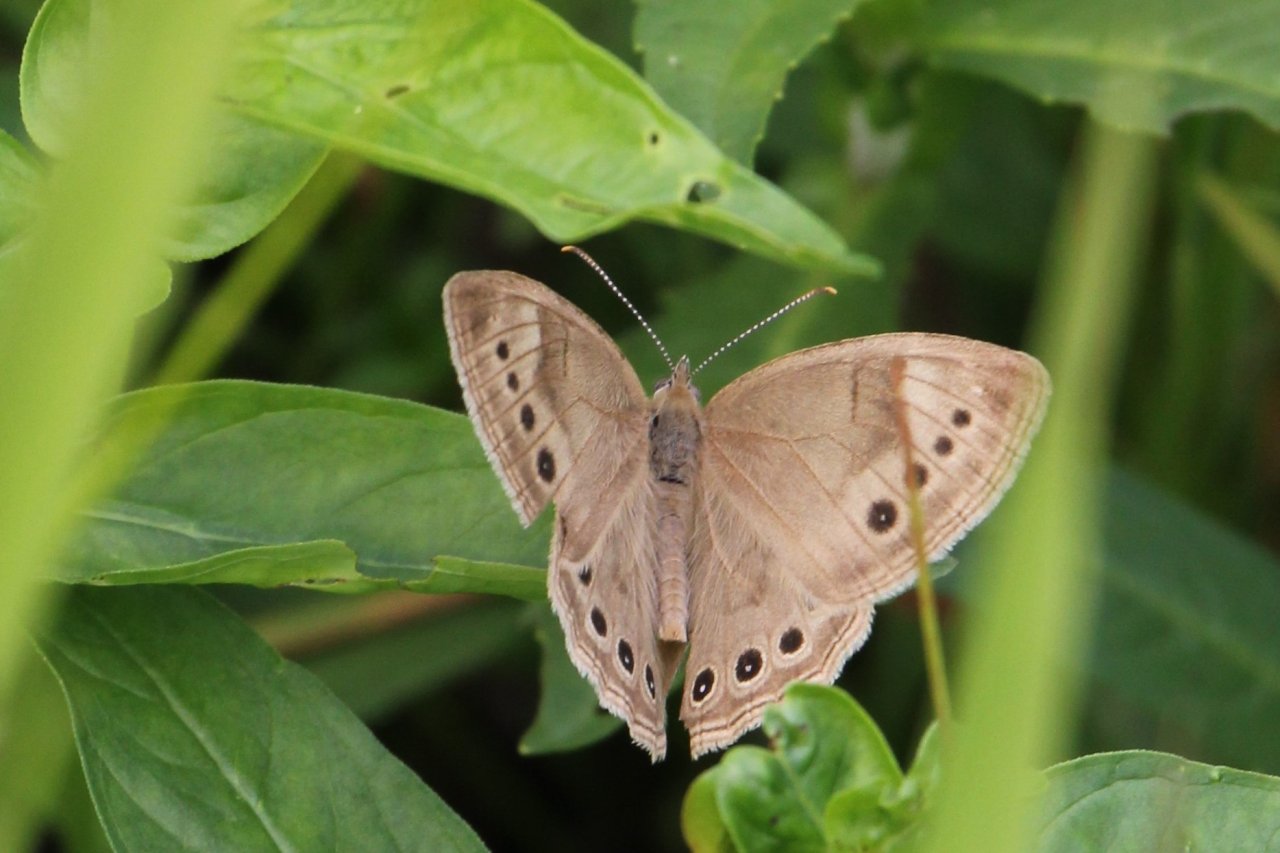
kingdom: Animalia
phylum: Arthropoda
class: Insecta
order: Lepidoptera
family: Nymphalidae
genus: Lethe
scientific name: Lethe eurydice
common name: Eyed Brown
